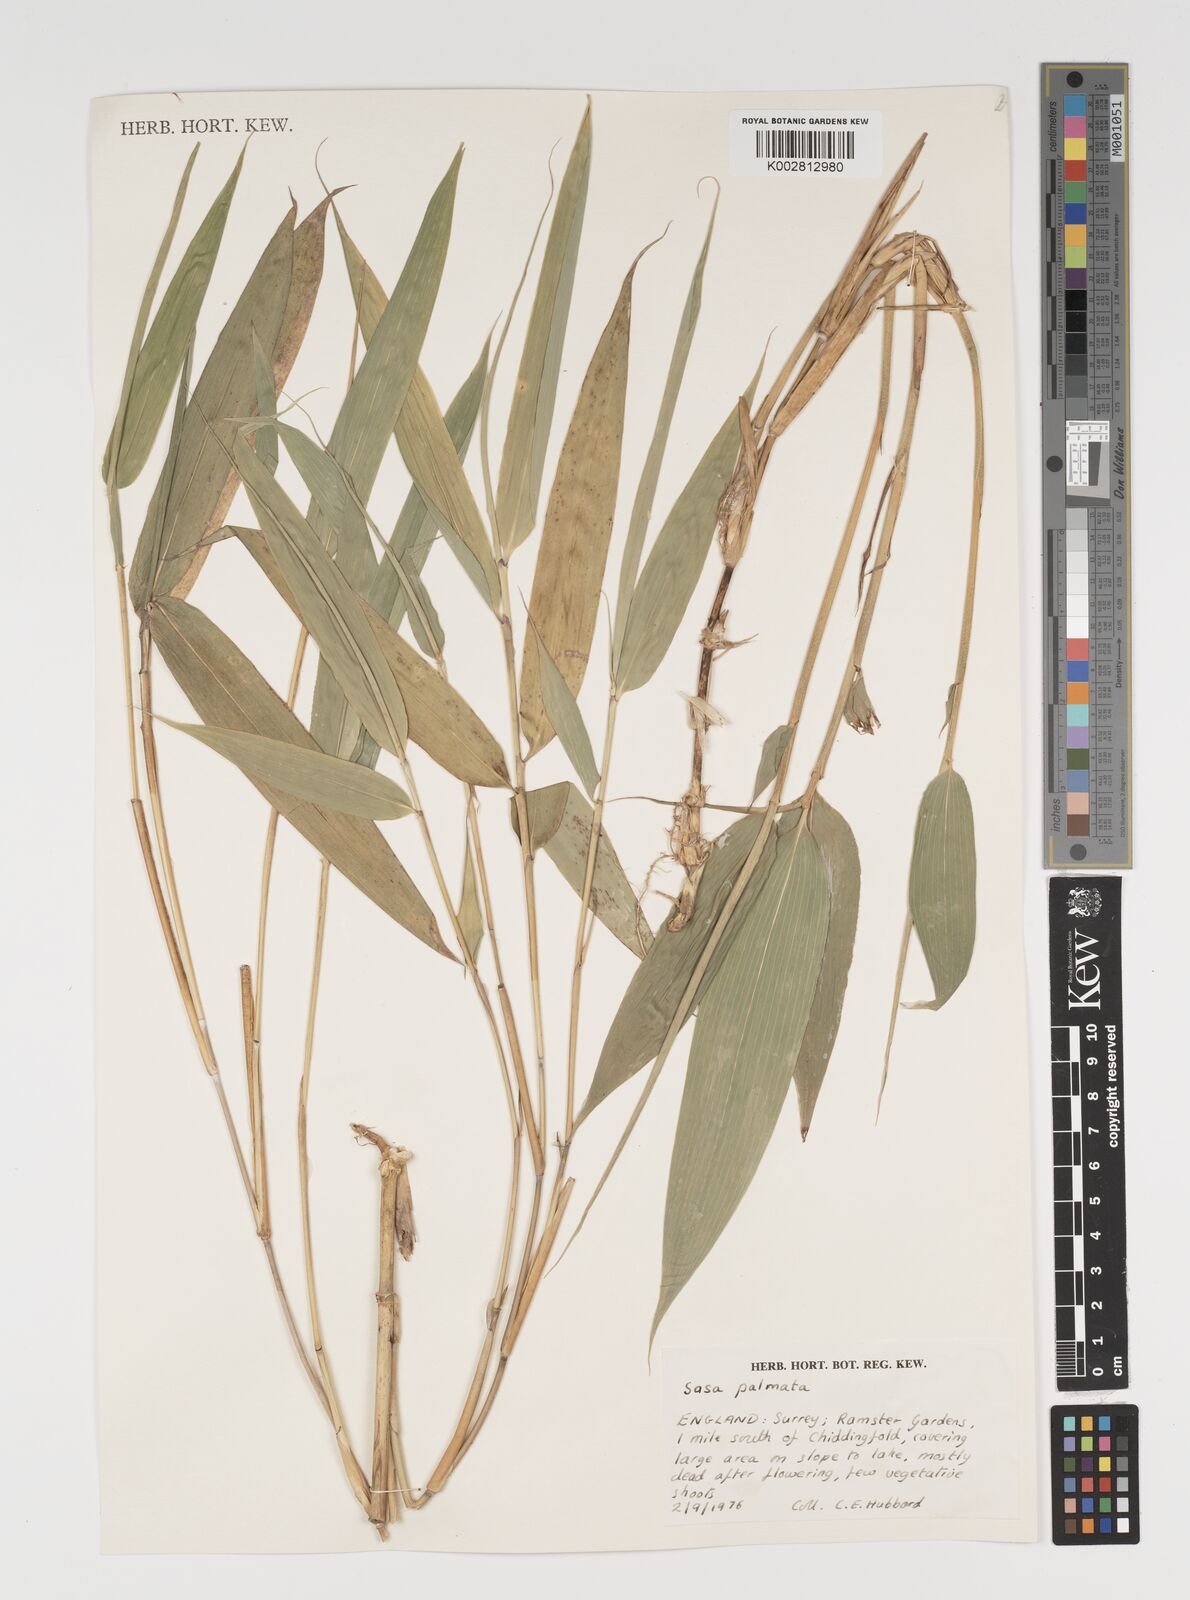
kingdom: Plantae
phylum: Tracheophyta
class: Liliopsida
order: Poales
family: Poaceae
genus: Sasa
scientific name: Sasa palmata
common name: Broad-leaved bamboo
